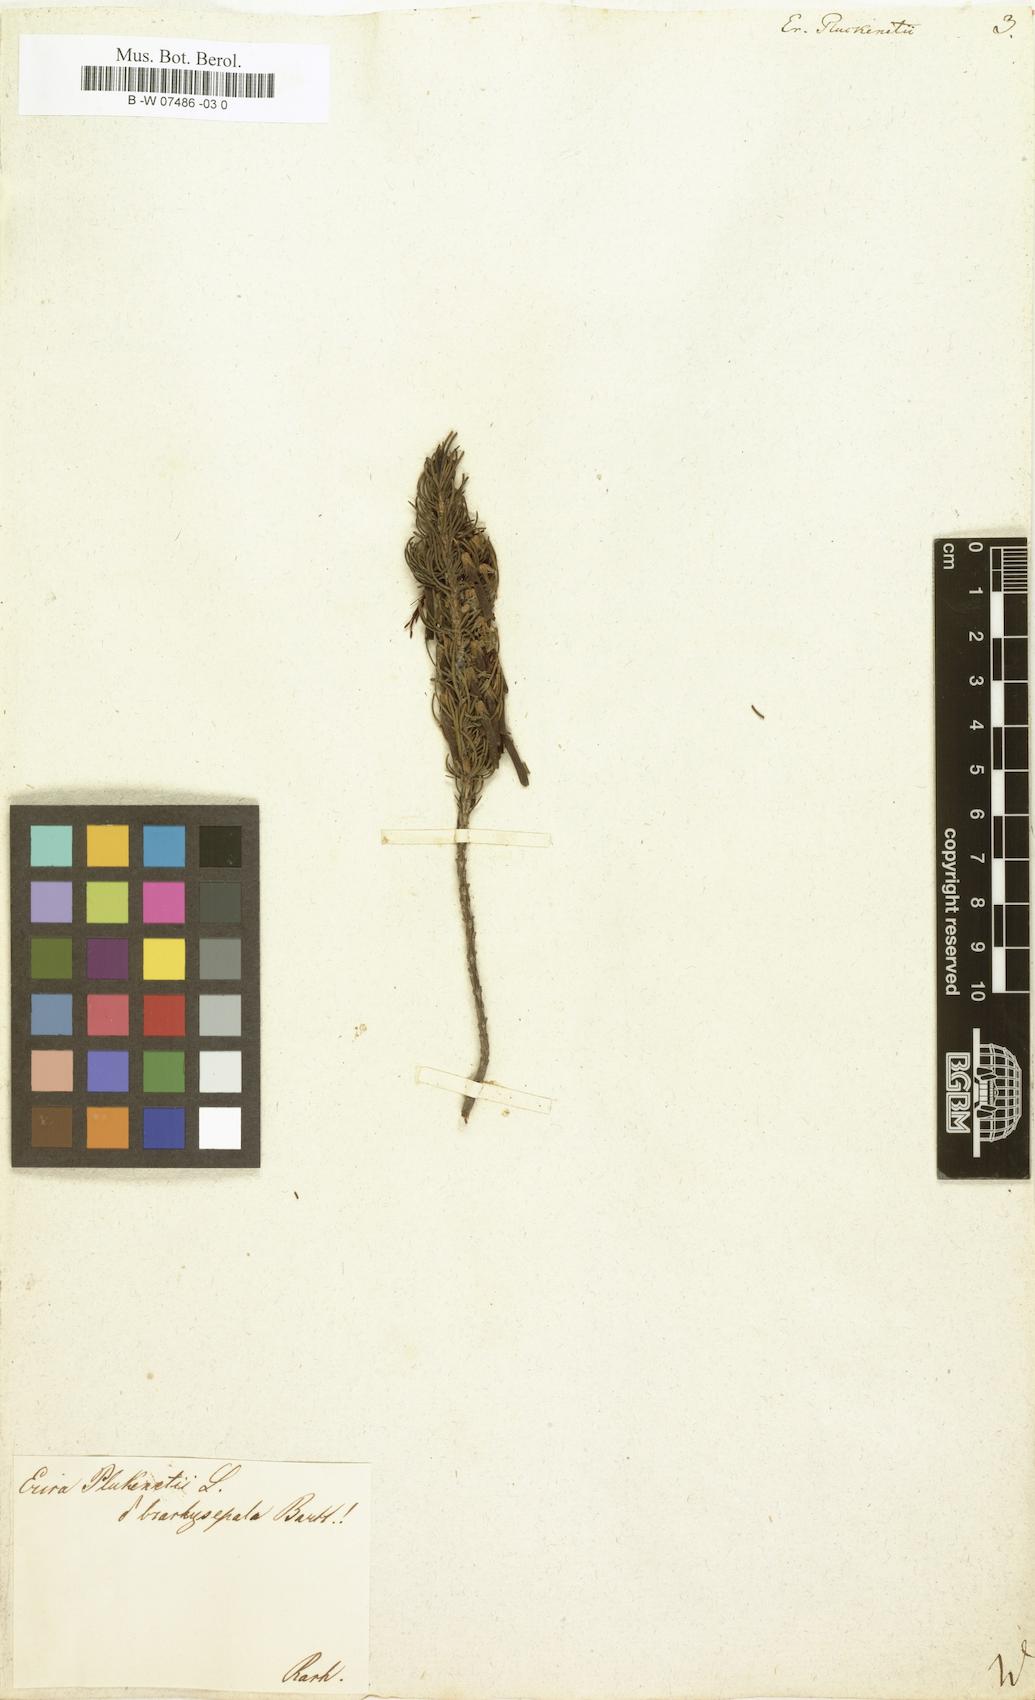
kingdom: Plantae
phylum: Tracheophyta
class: Magnoliopsida
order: Ericales
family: Ericaceae
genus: Erica
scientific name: Erica plukenetii
